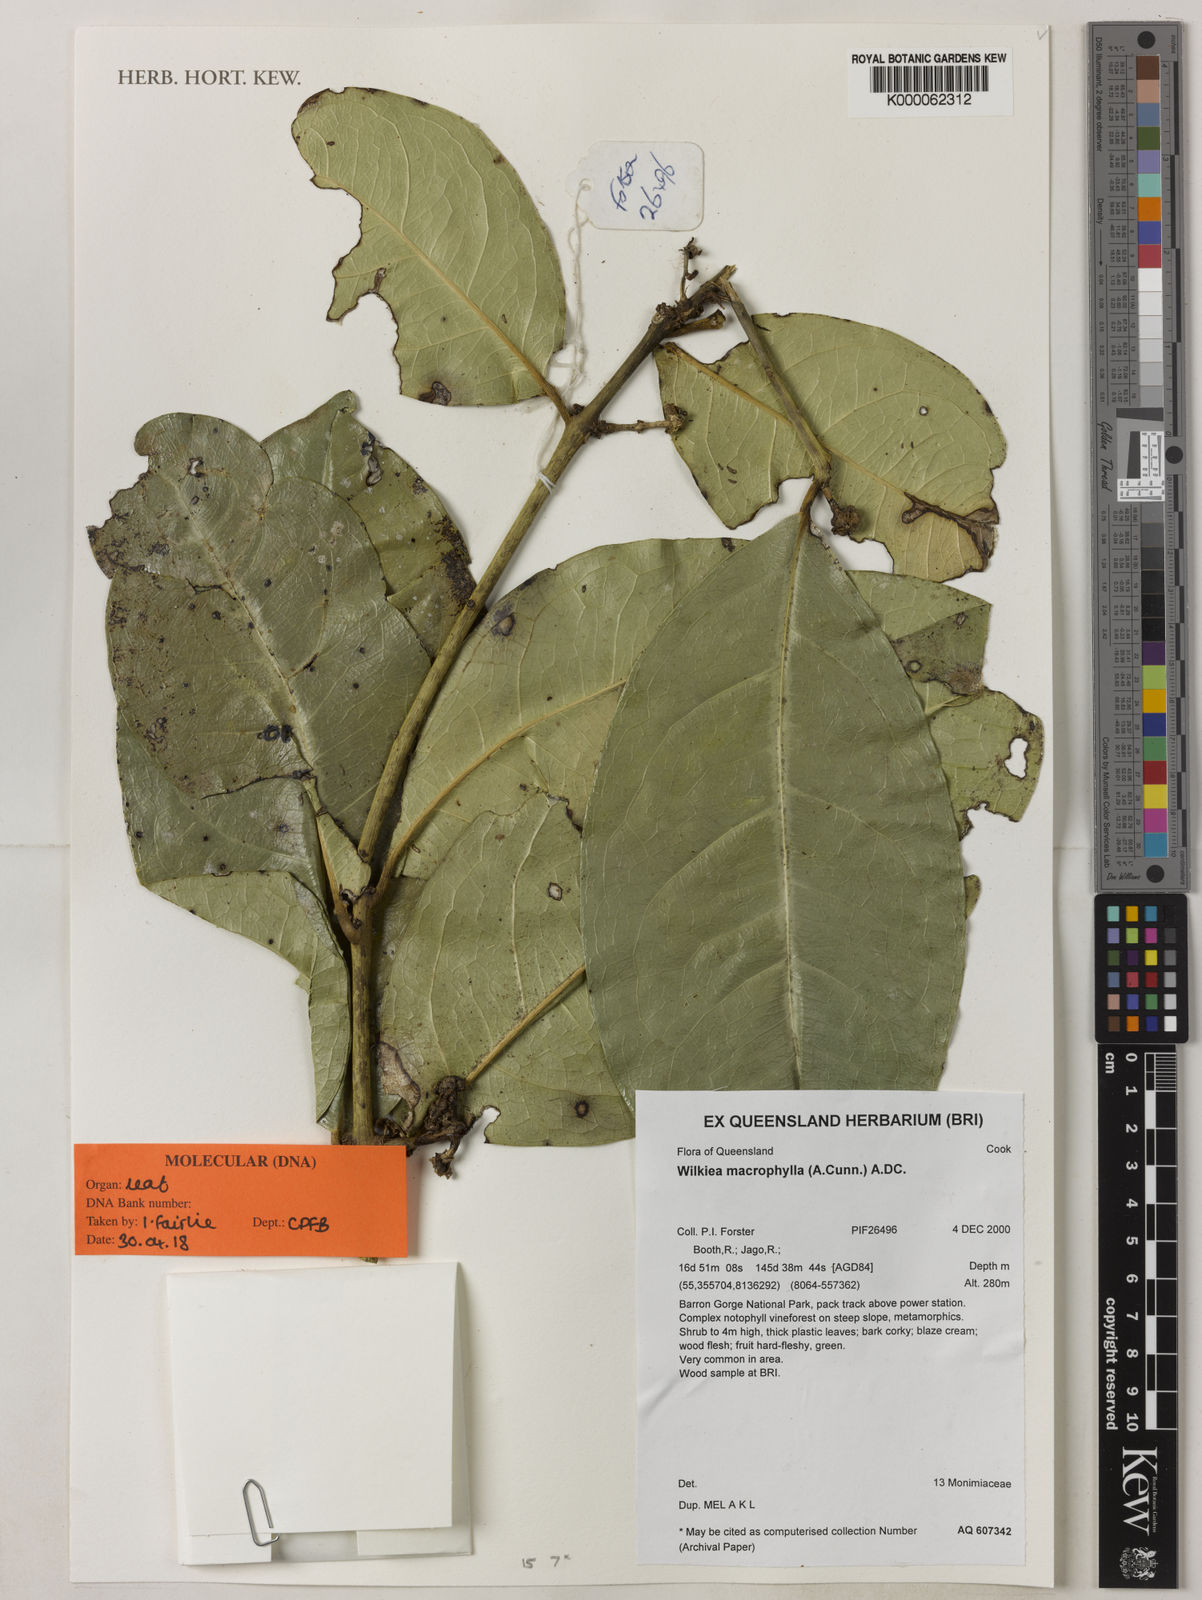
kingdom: Plantae
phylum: Tracheophyta
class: Magnoliopsida
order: Laurales
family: Monimiaceae
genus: Wilkiea
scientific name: Wilkiea
